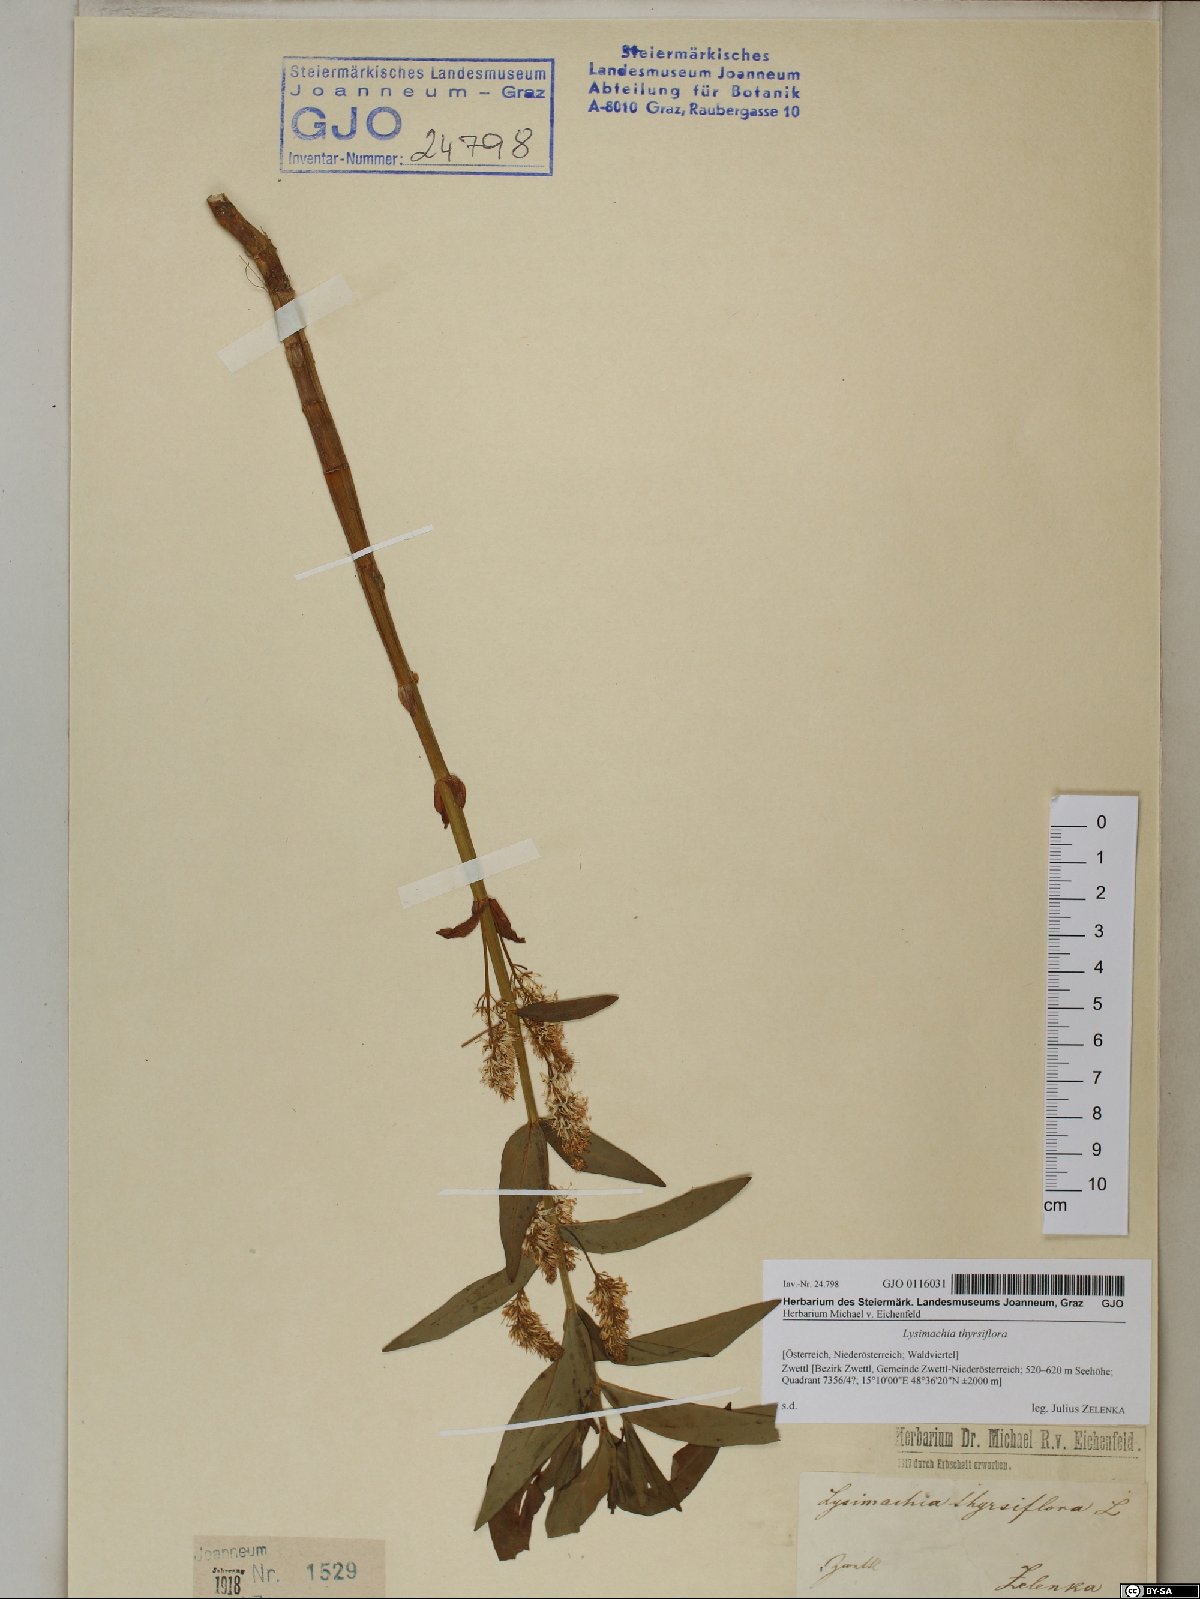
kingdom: Plantae
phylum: Tracheophyta
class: Magnoliopsida
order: Ericales
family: Primulaceae
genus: Lysimachia
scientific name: Lysimachia thyrsiflora
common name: Tufted loosestrife
